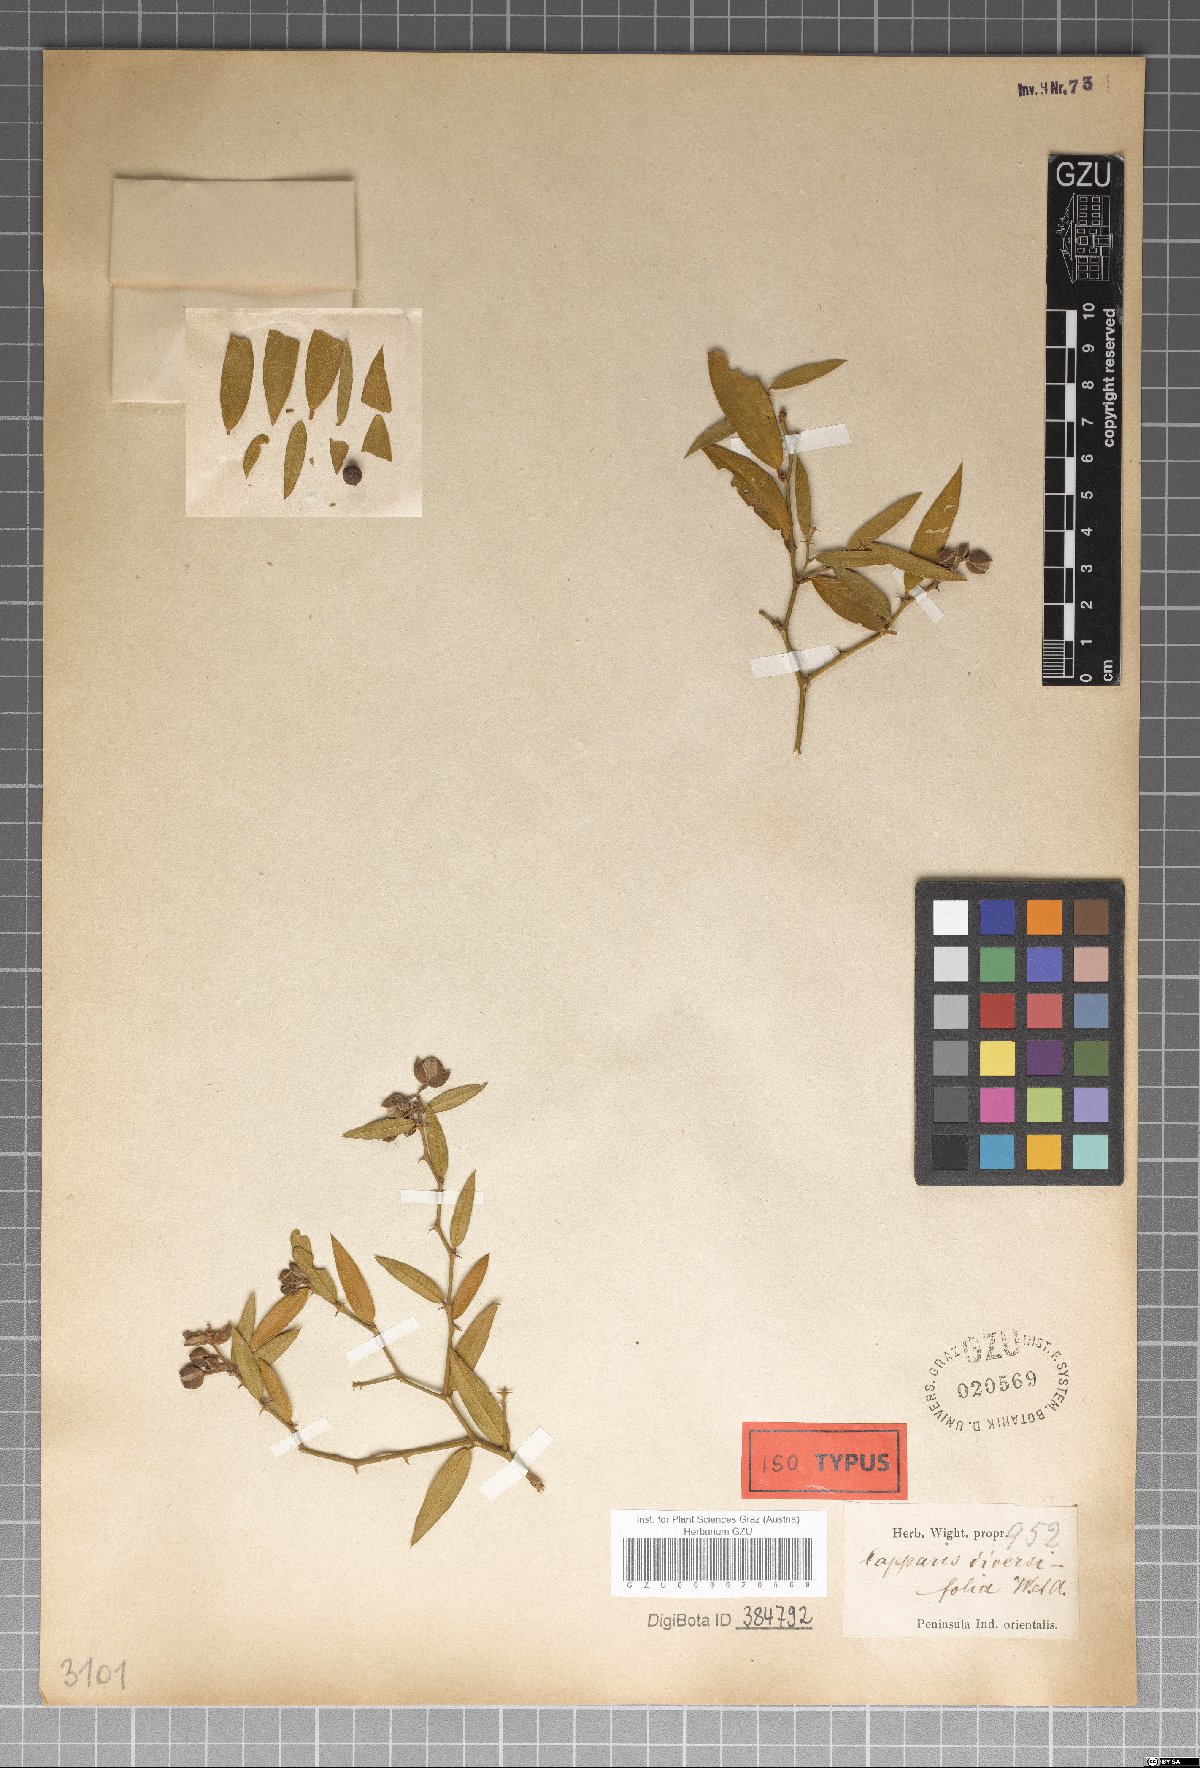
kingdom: Plantae
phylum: Tracheophyta
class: Magnoliopsida
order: Brassicales
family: Capparaceae
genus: Capparis
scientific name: Capparis diversifolia
